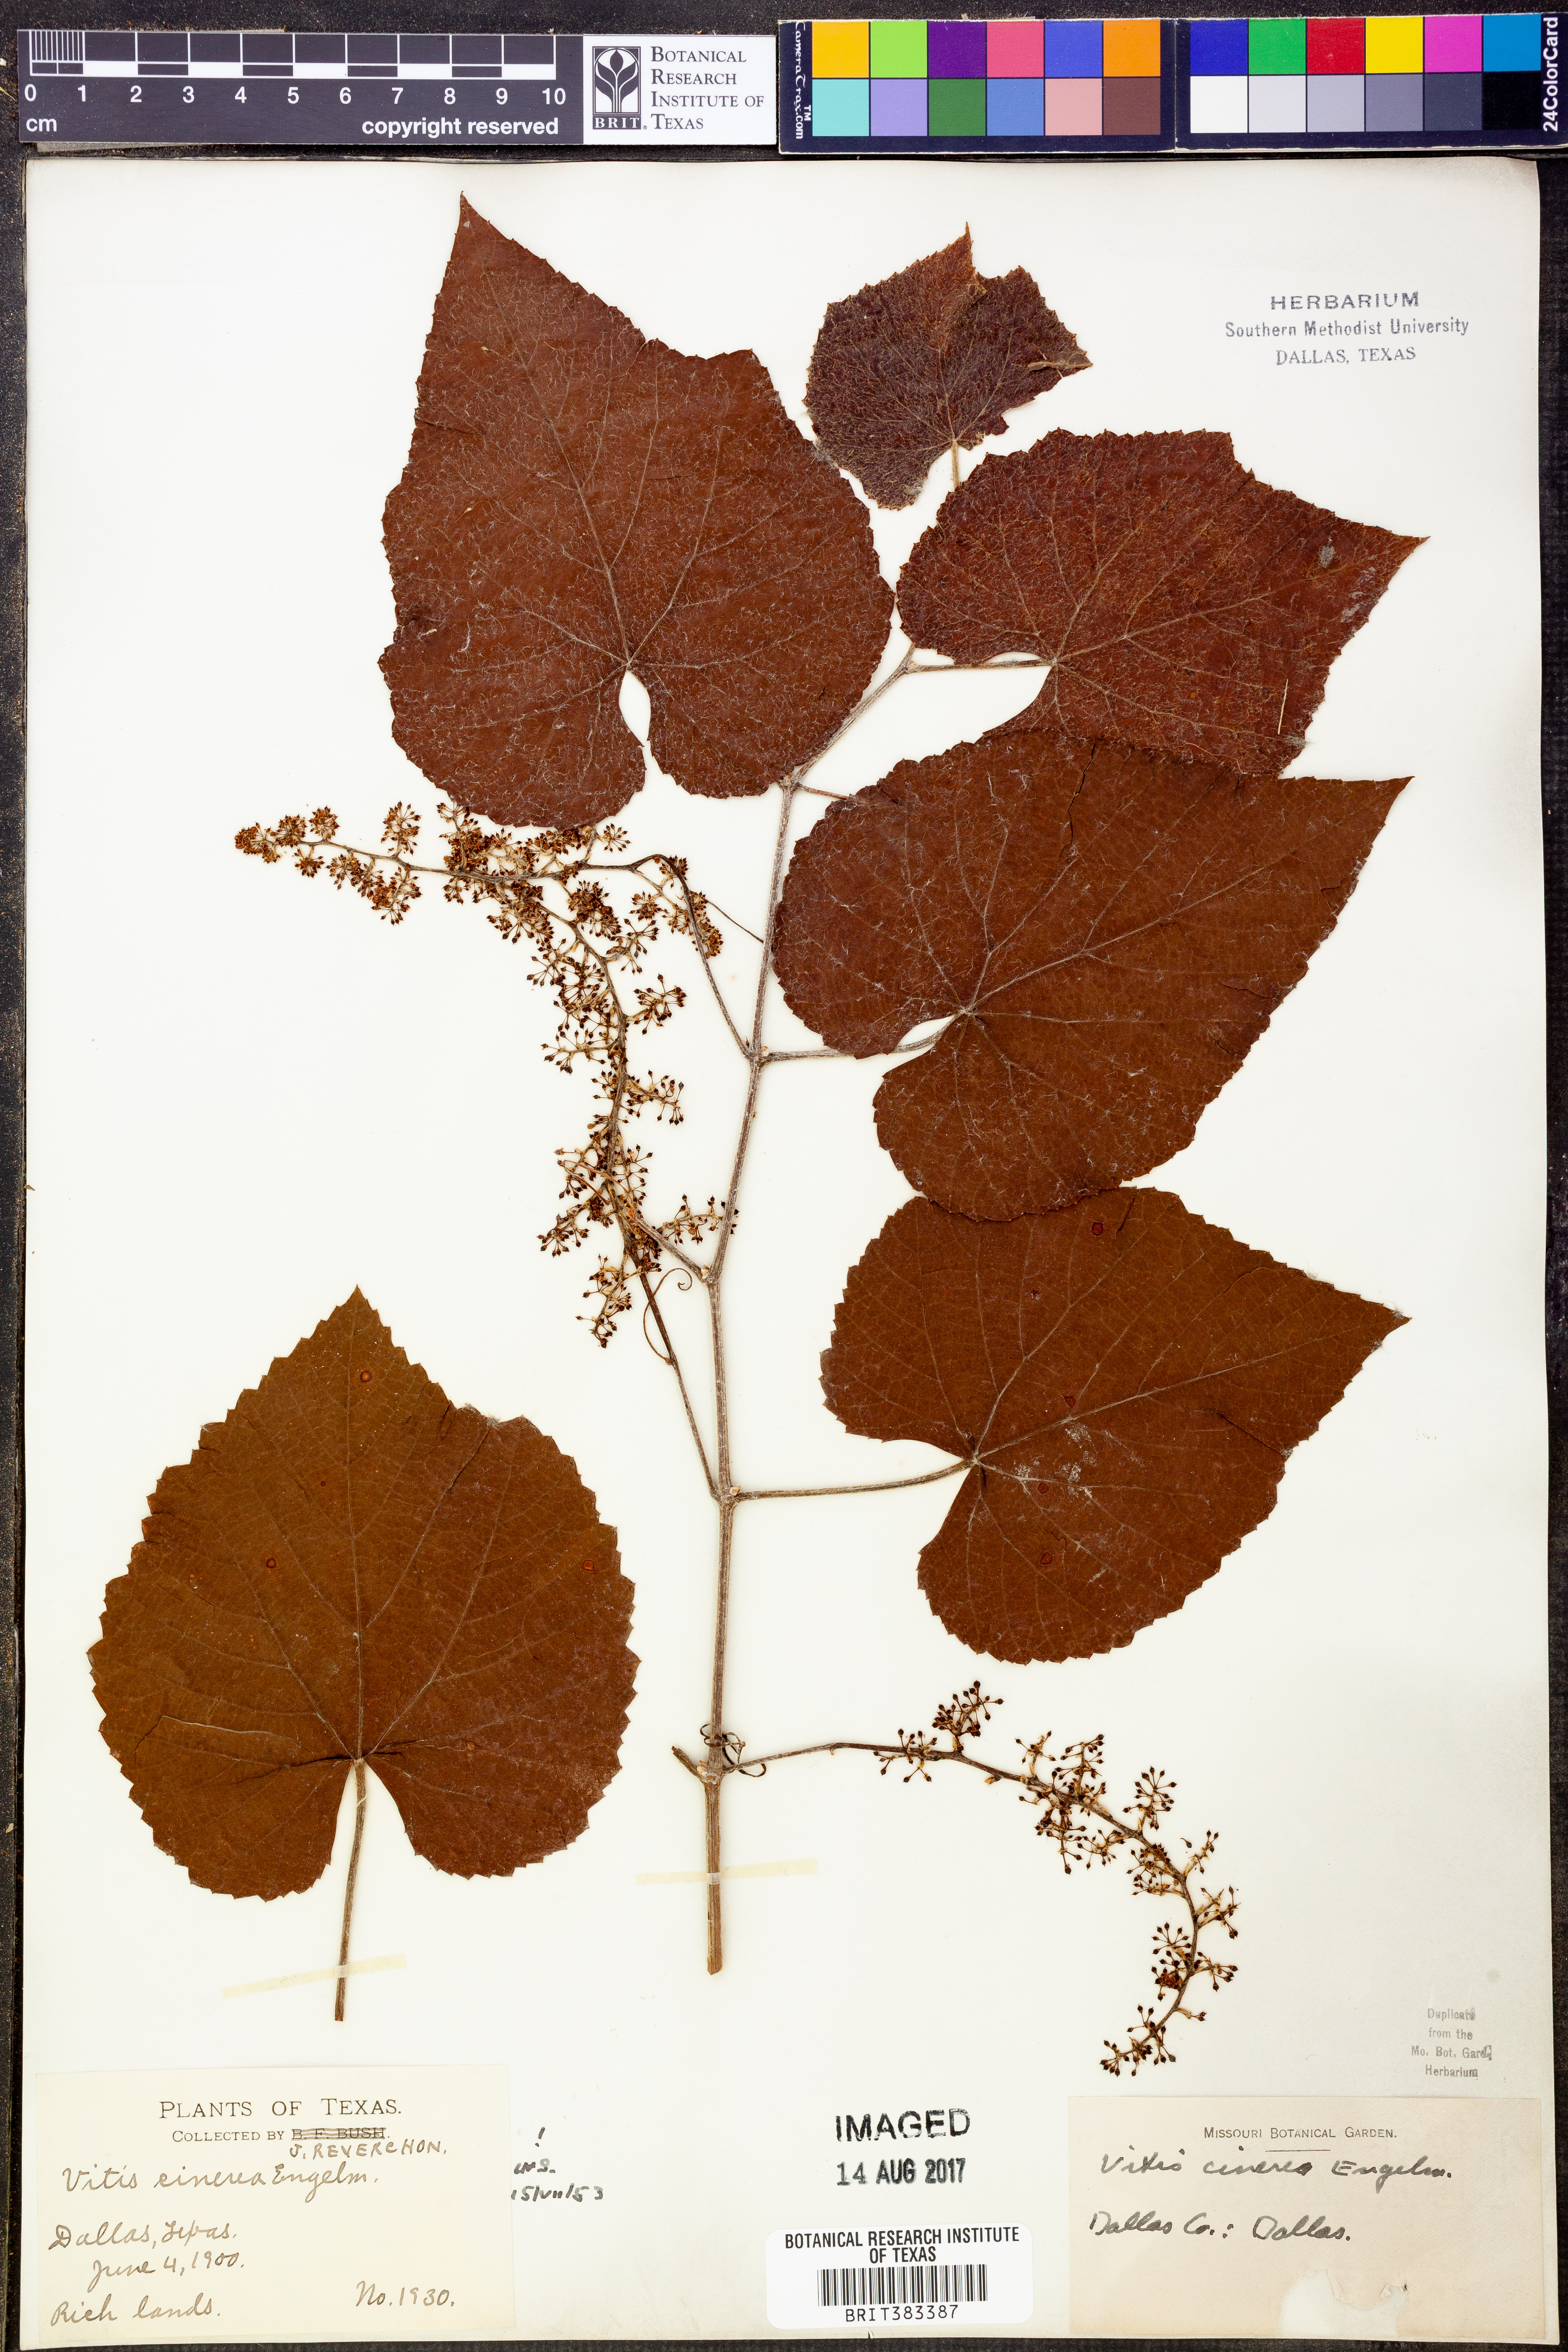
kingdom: Plantae
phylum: Tracheophyta
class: Magnoliopsida
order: Vitales
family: Vitaceae
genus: Vitis
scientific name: Vitis cinerea
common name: Ashy grape
